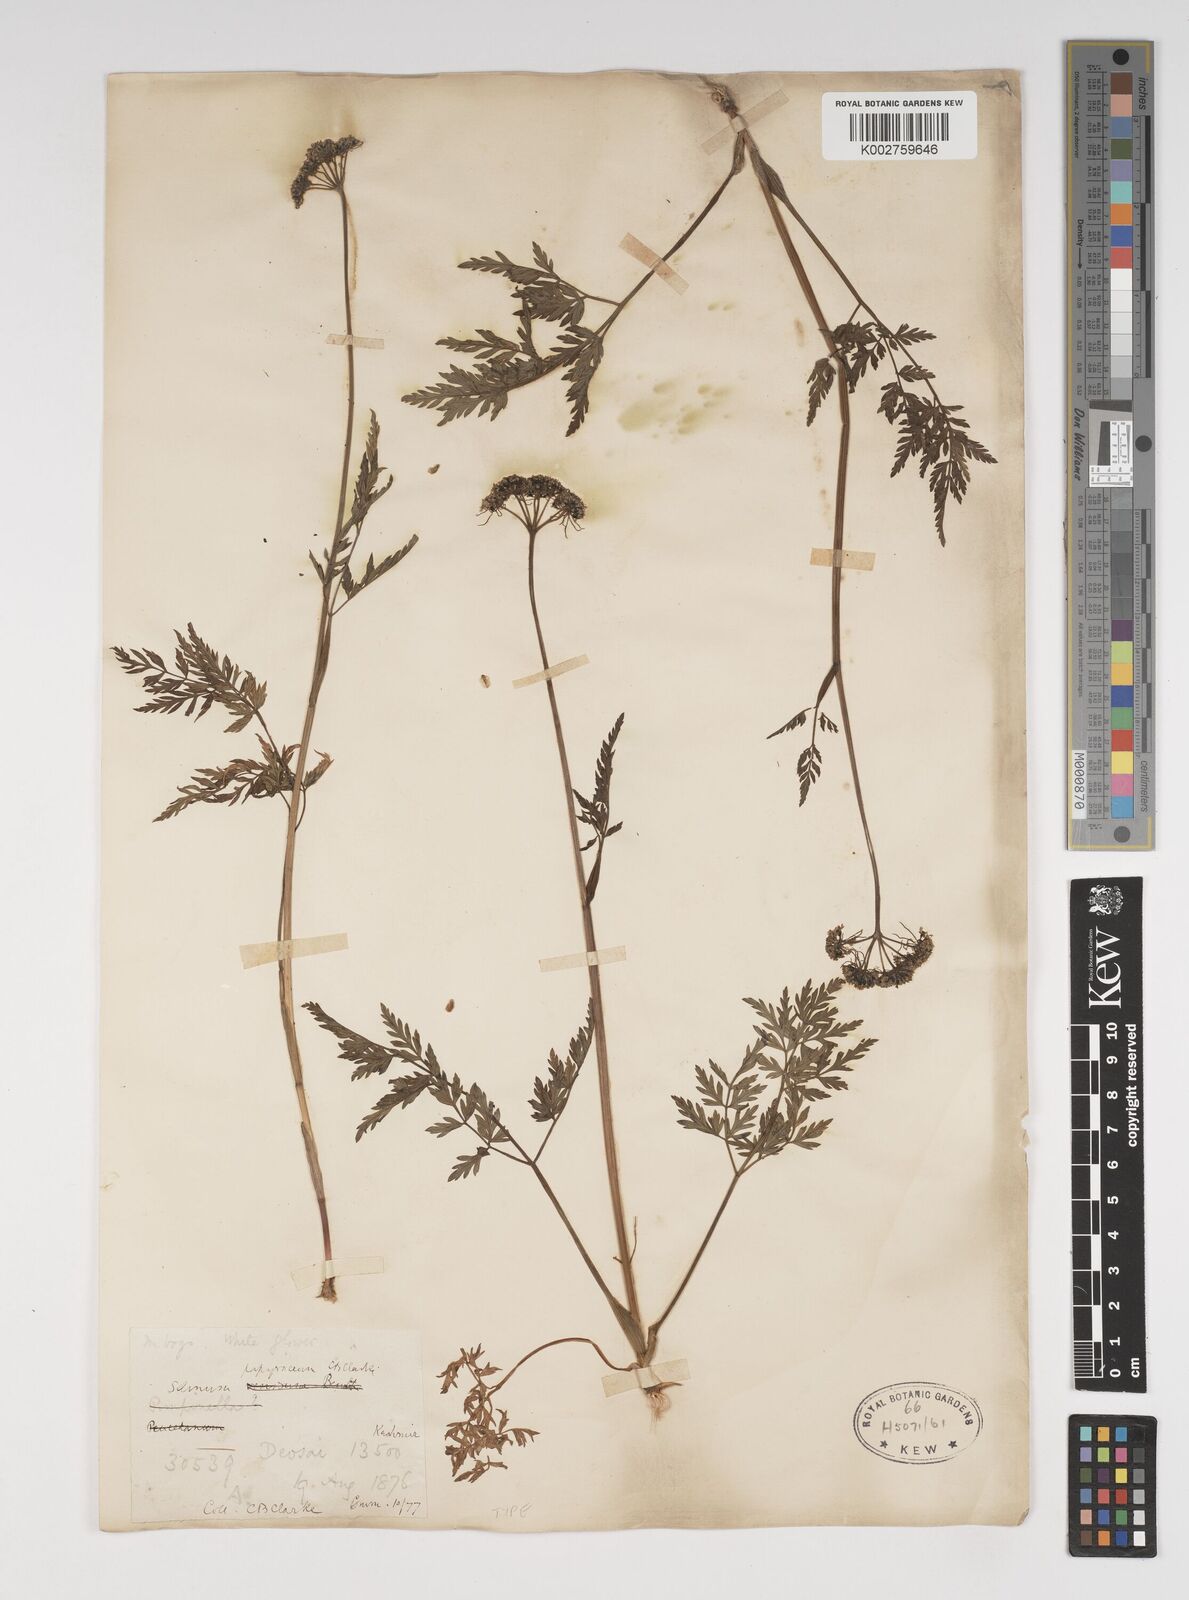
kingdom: Plantae
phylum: Tracheophyta
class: Magnoliopsida
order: Apiales
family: Apiaceae
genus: Conioselinum
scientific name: Conioselinum tataricum
